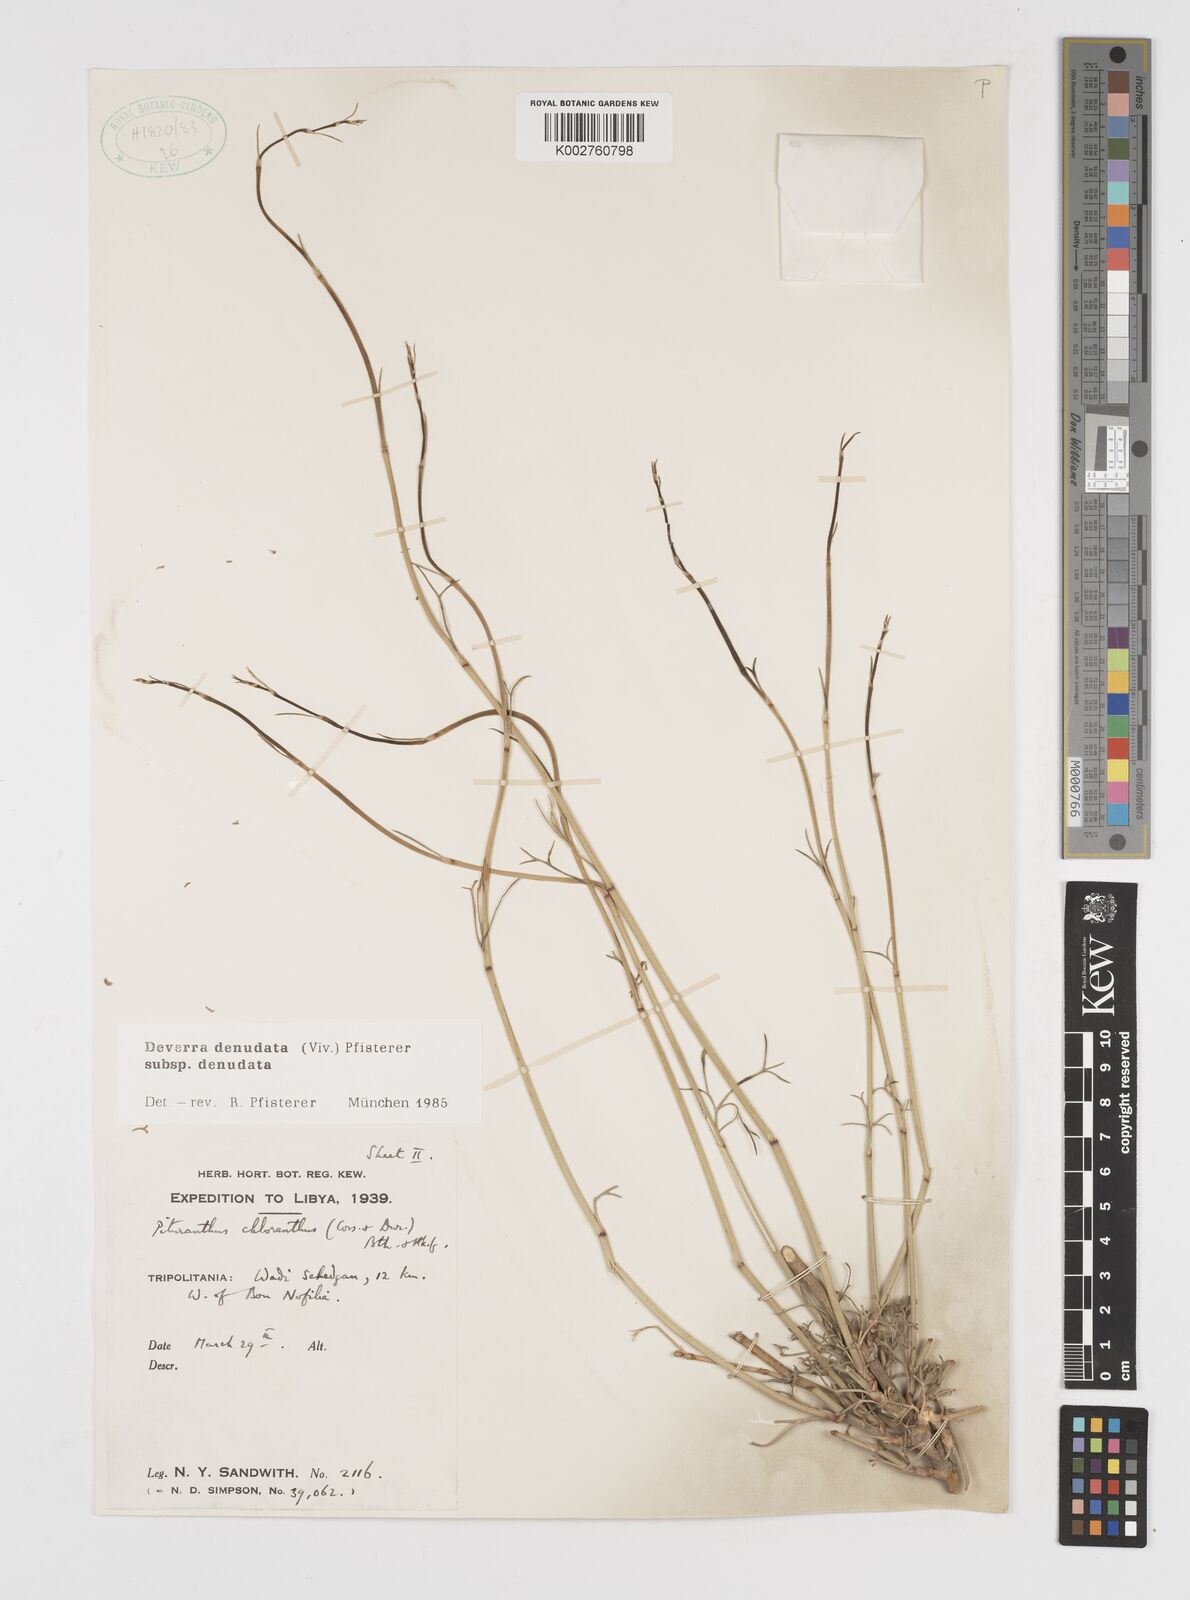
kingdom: Plantae
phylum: Tracheophyta
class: Magnoliopsida
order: Apiales
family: Apiaceae
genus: Deverra
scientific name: Deverra denudata
